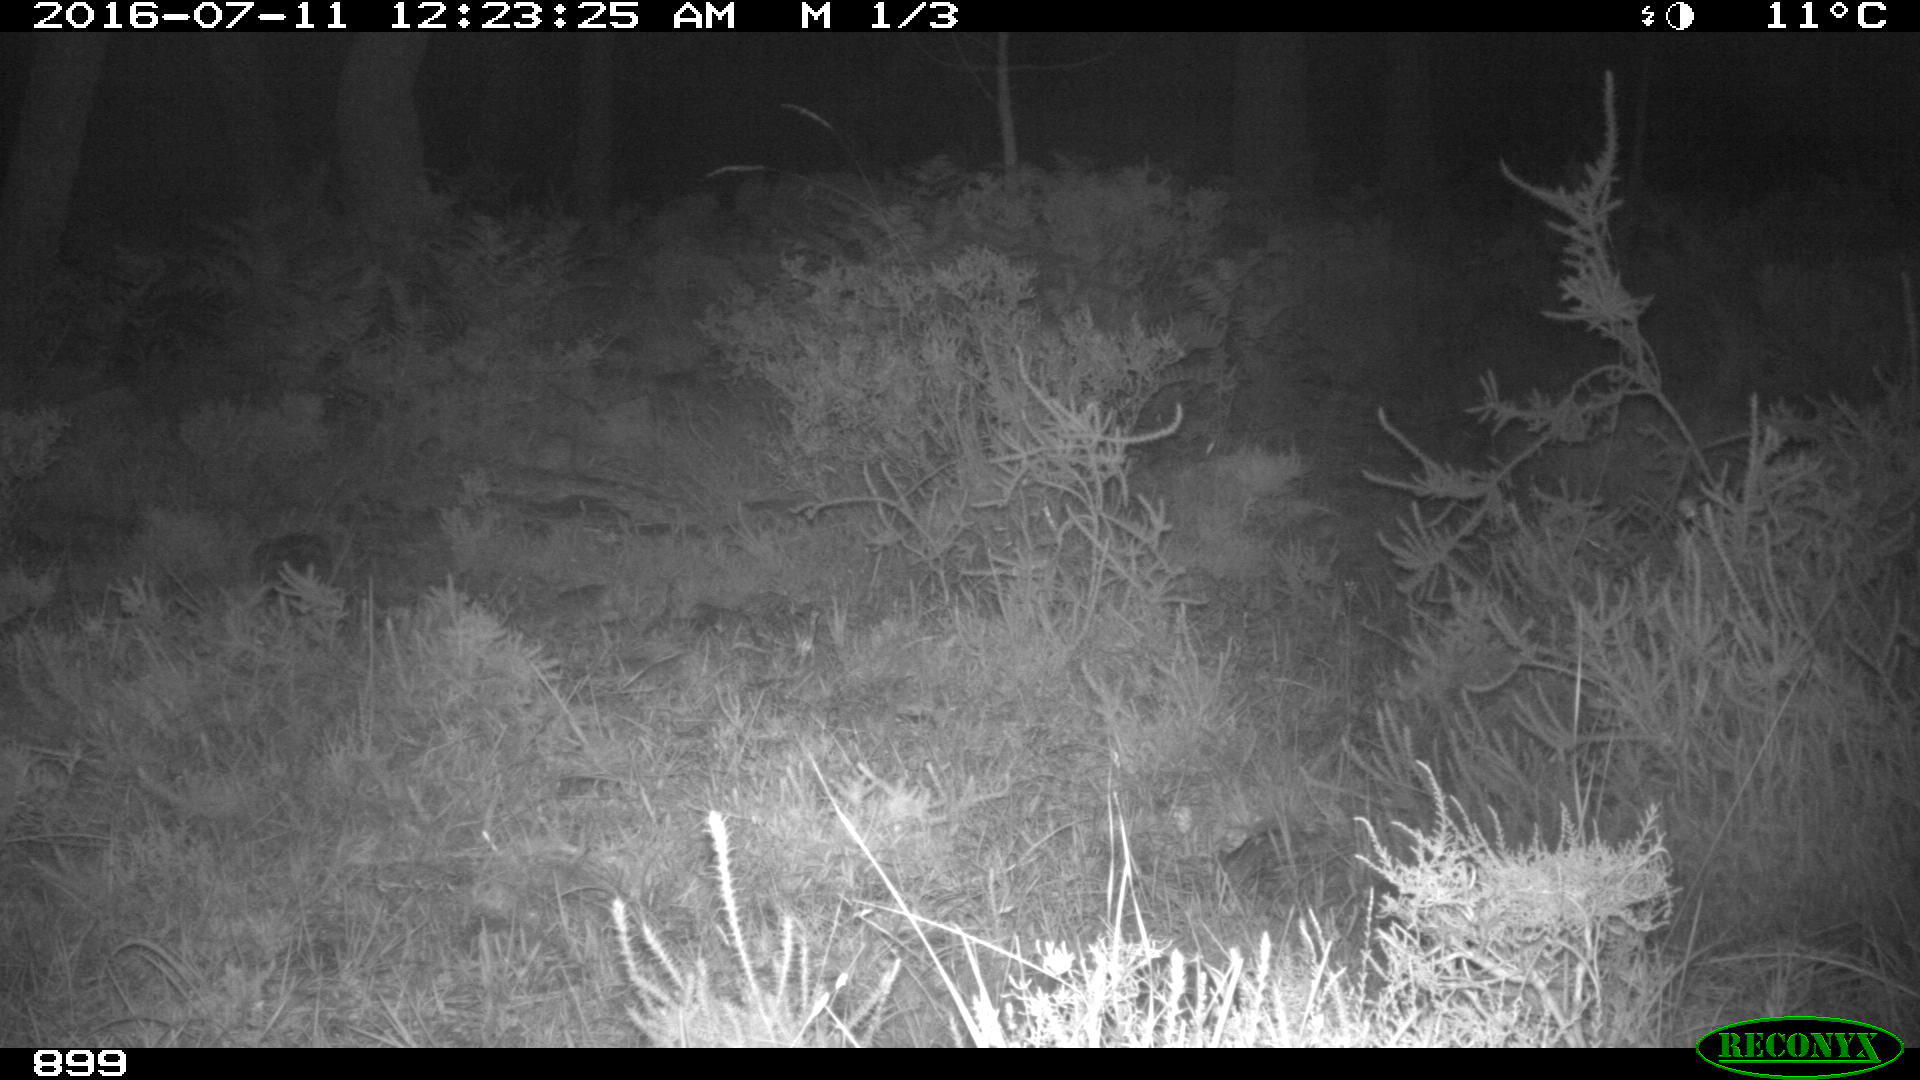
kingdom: Animalia
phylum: Chordata
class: Mammalia
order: Artiodactyla
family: Cervidae
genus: Capreolus
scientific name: Capreolus capreolus
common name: Western roe deer
